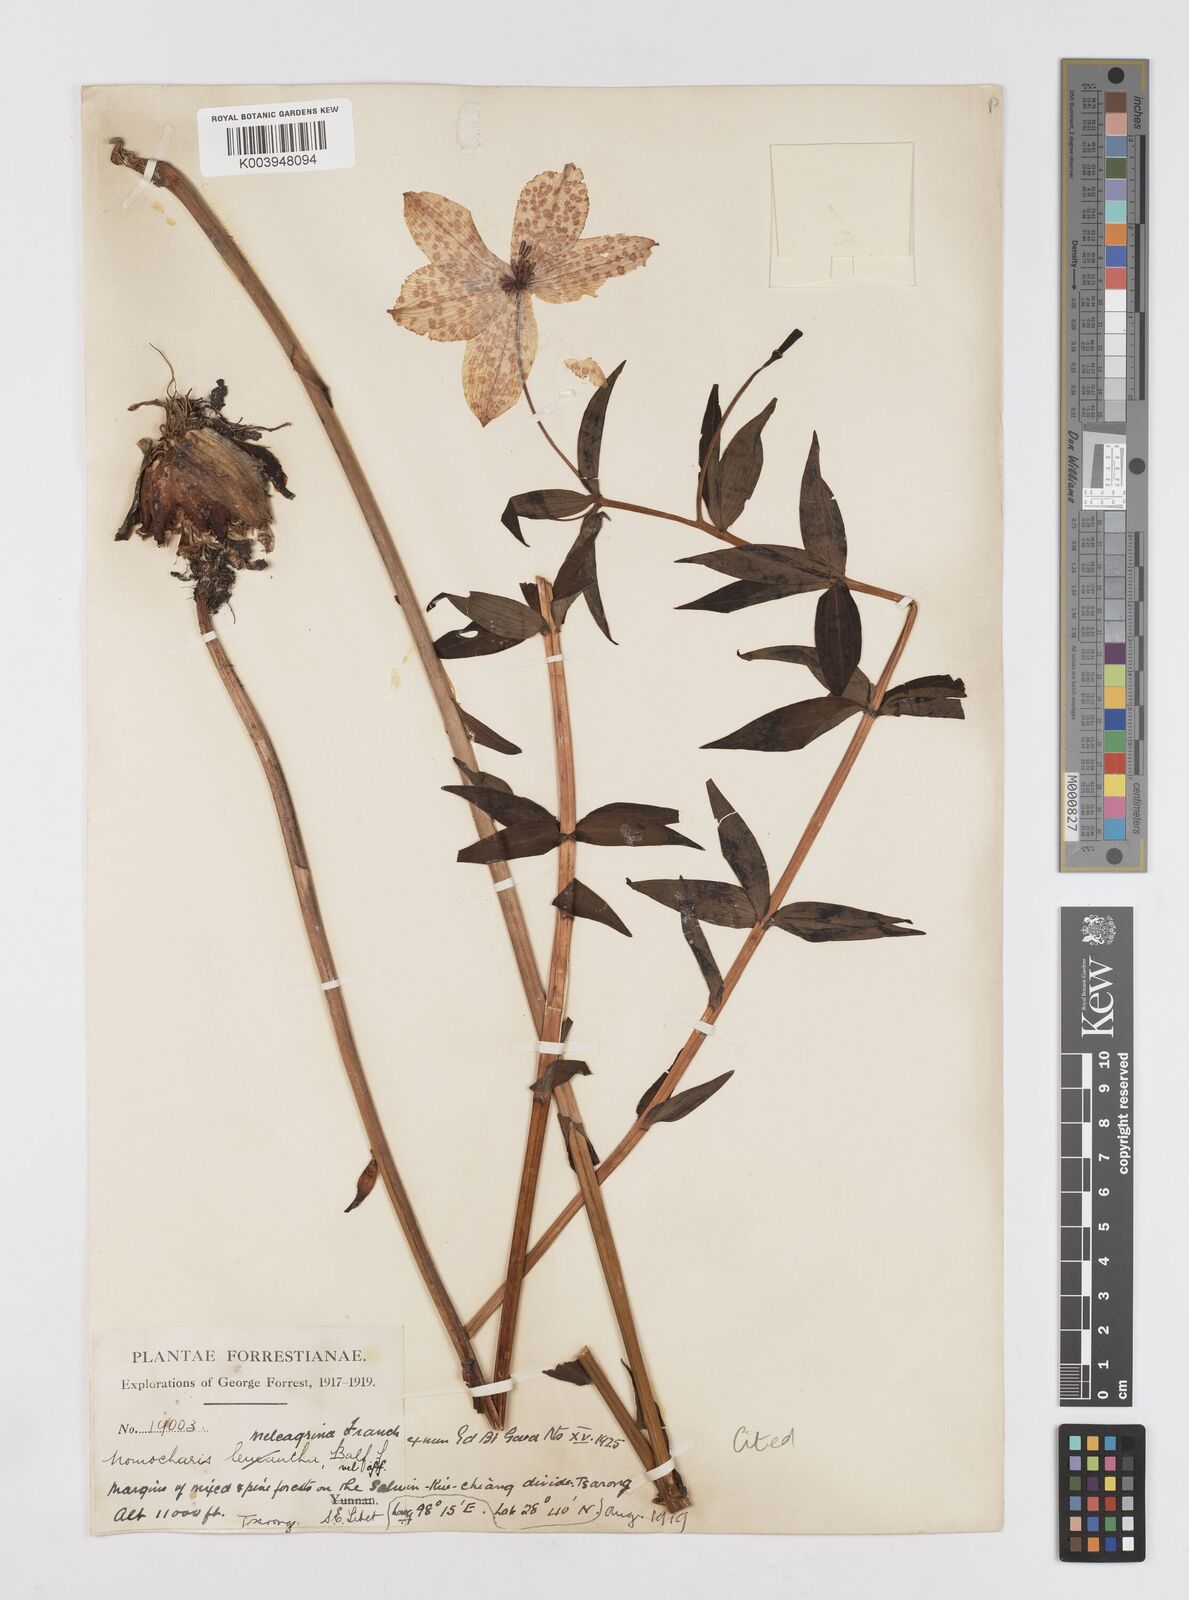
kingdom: Plantae
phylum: Tracheophyta
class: Liliopsida
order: Liliales
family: Liliaceae
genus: Lilium
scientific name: Lilium meleagrina
